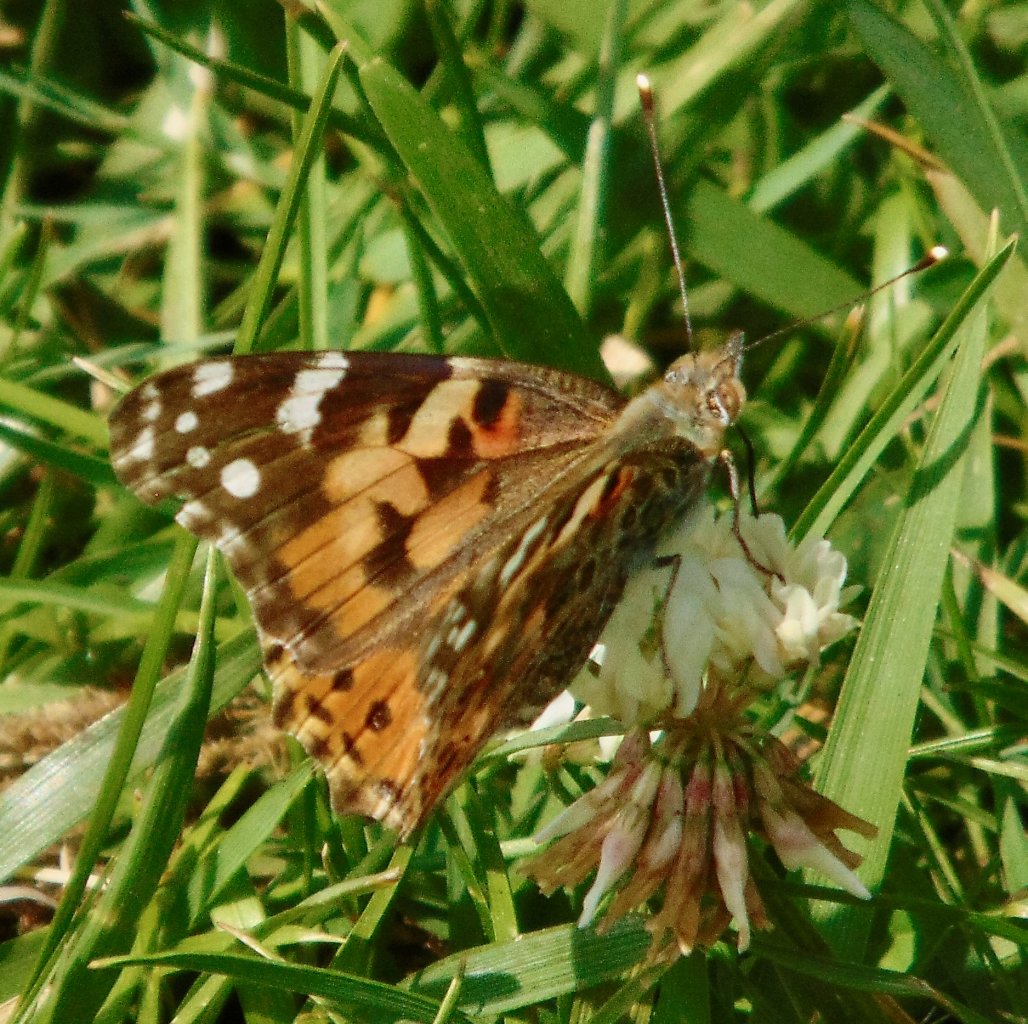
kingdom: Animalia
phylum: Arthropoda
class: Insecta
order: Lepidoptera
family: Nymphalidae
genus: Vanessa
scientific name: Vanessa cardui
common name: Painted Lady
